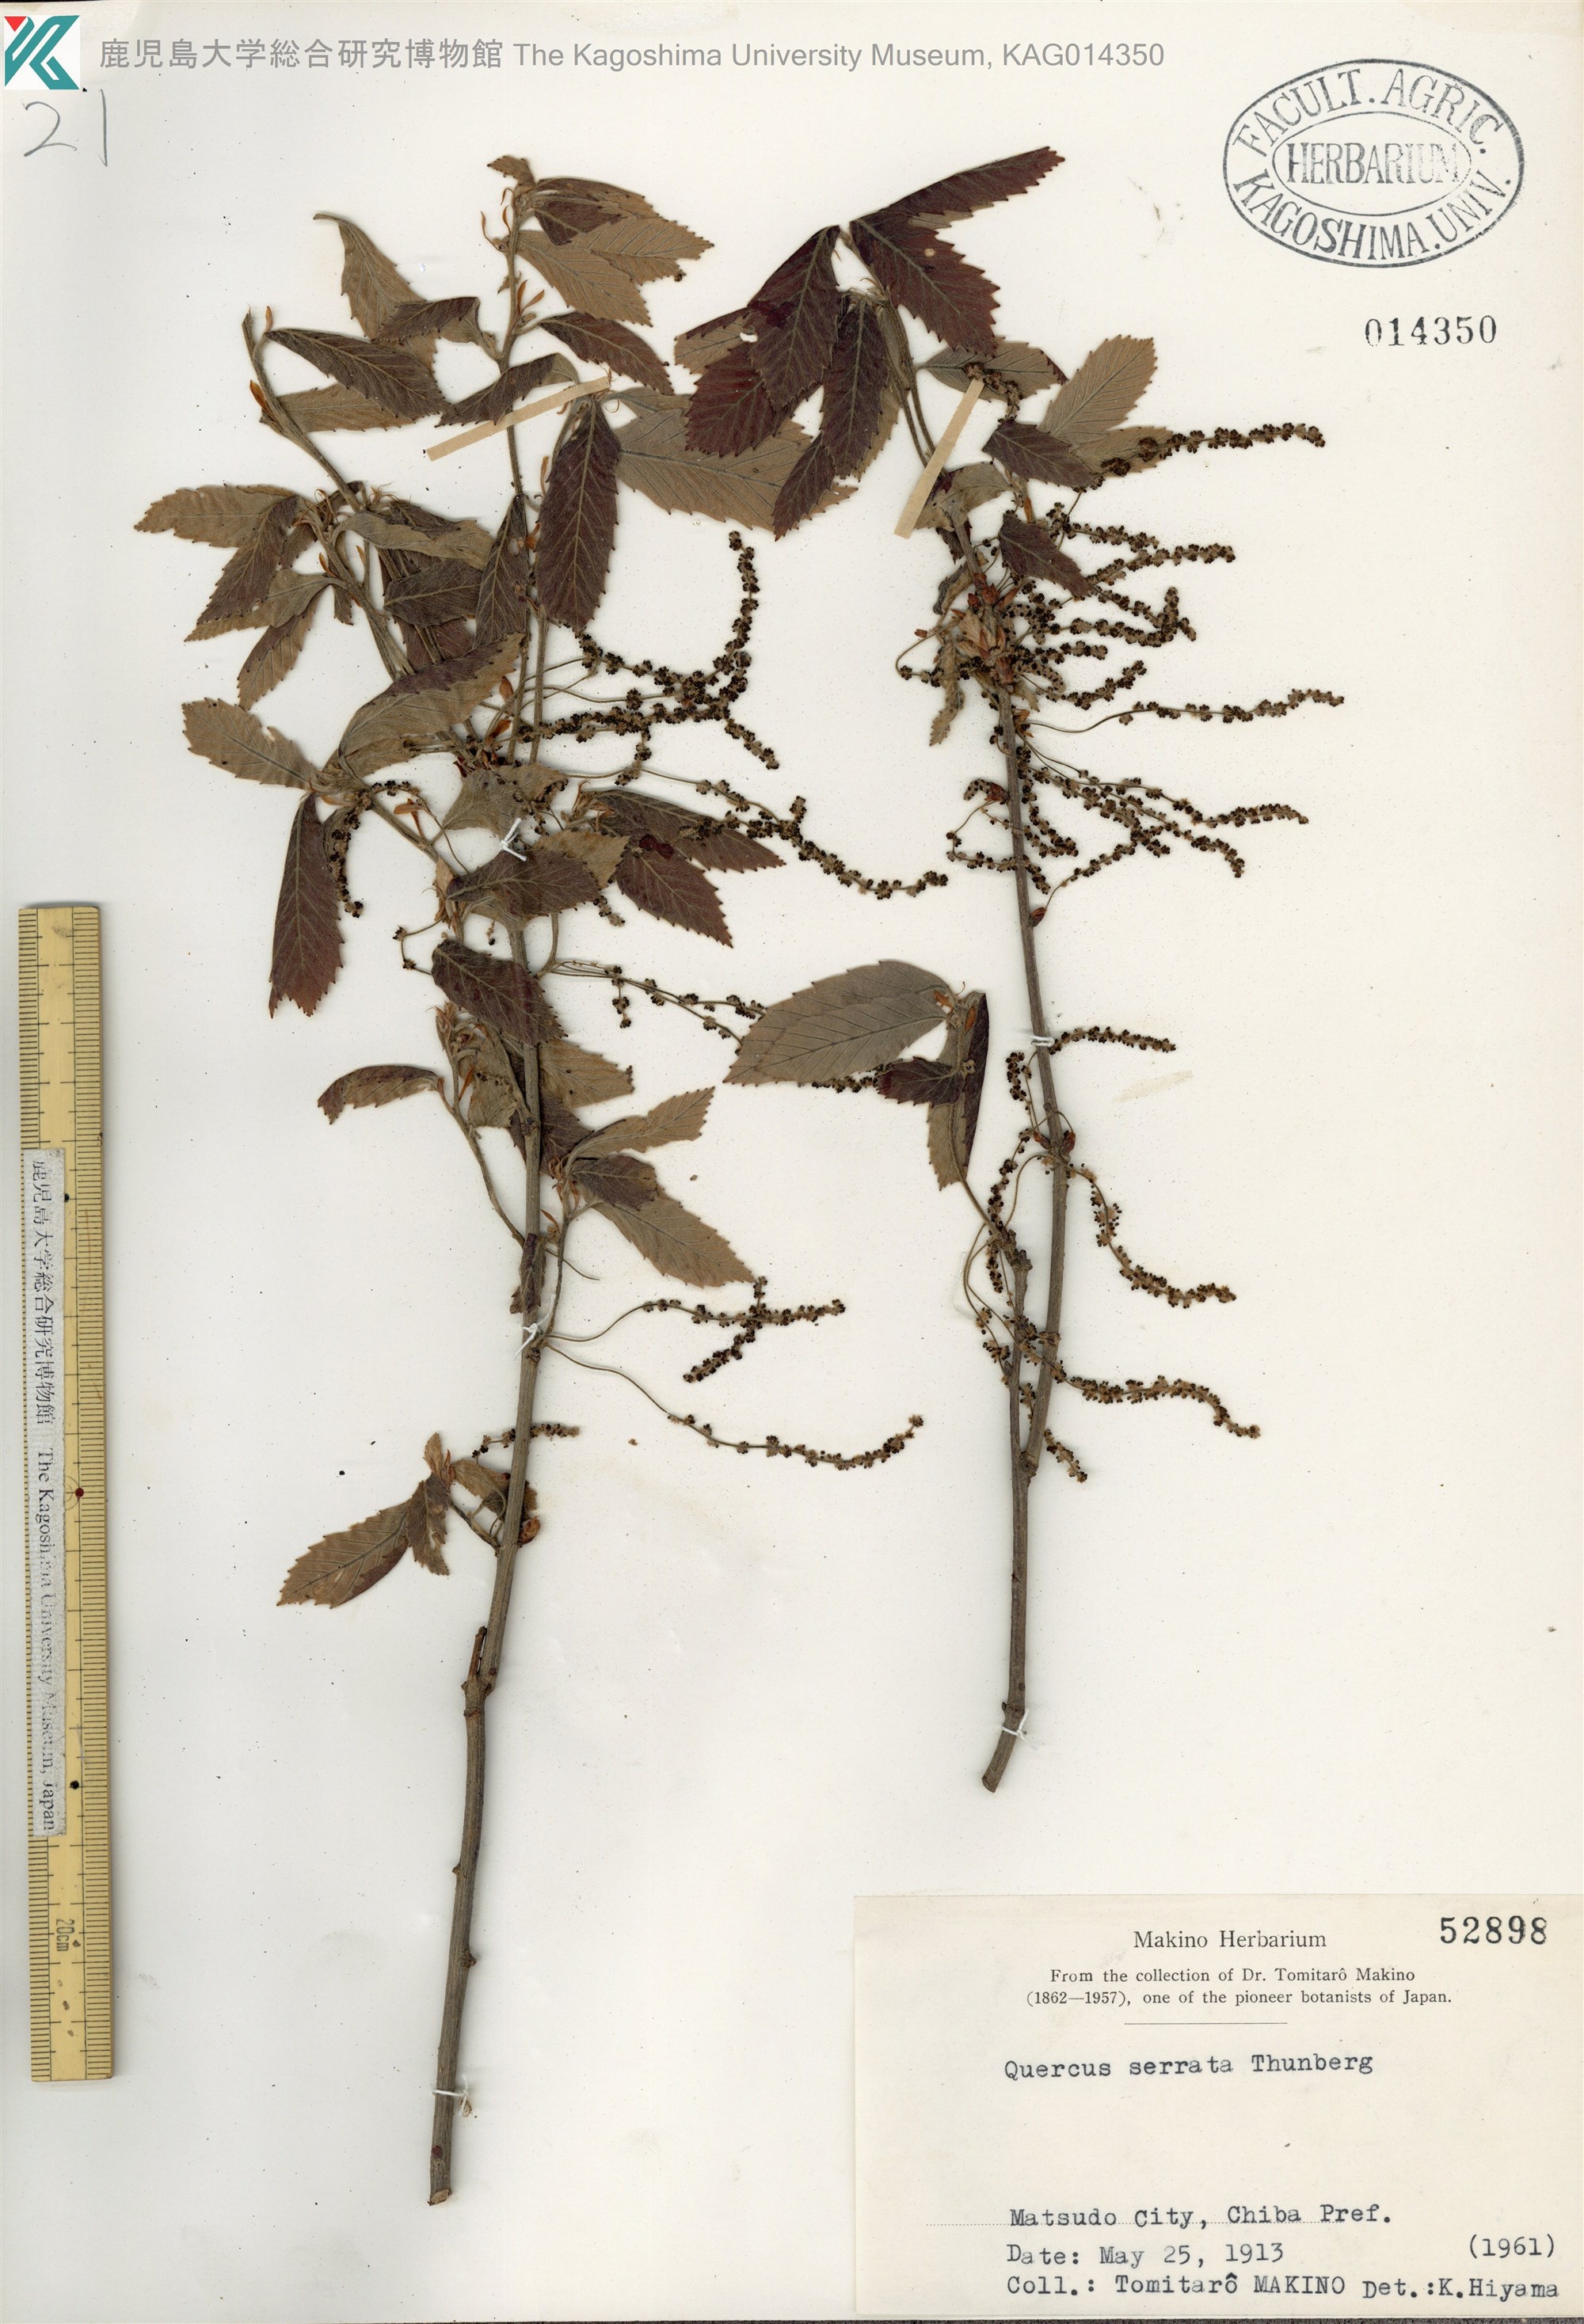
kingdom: Plantae
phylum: Tracheophyta
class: Magnoliopsida
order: Fagales
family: Fagaceae
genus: Quercus
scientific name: Quercus serrata
